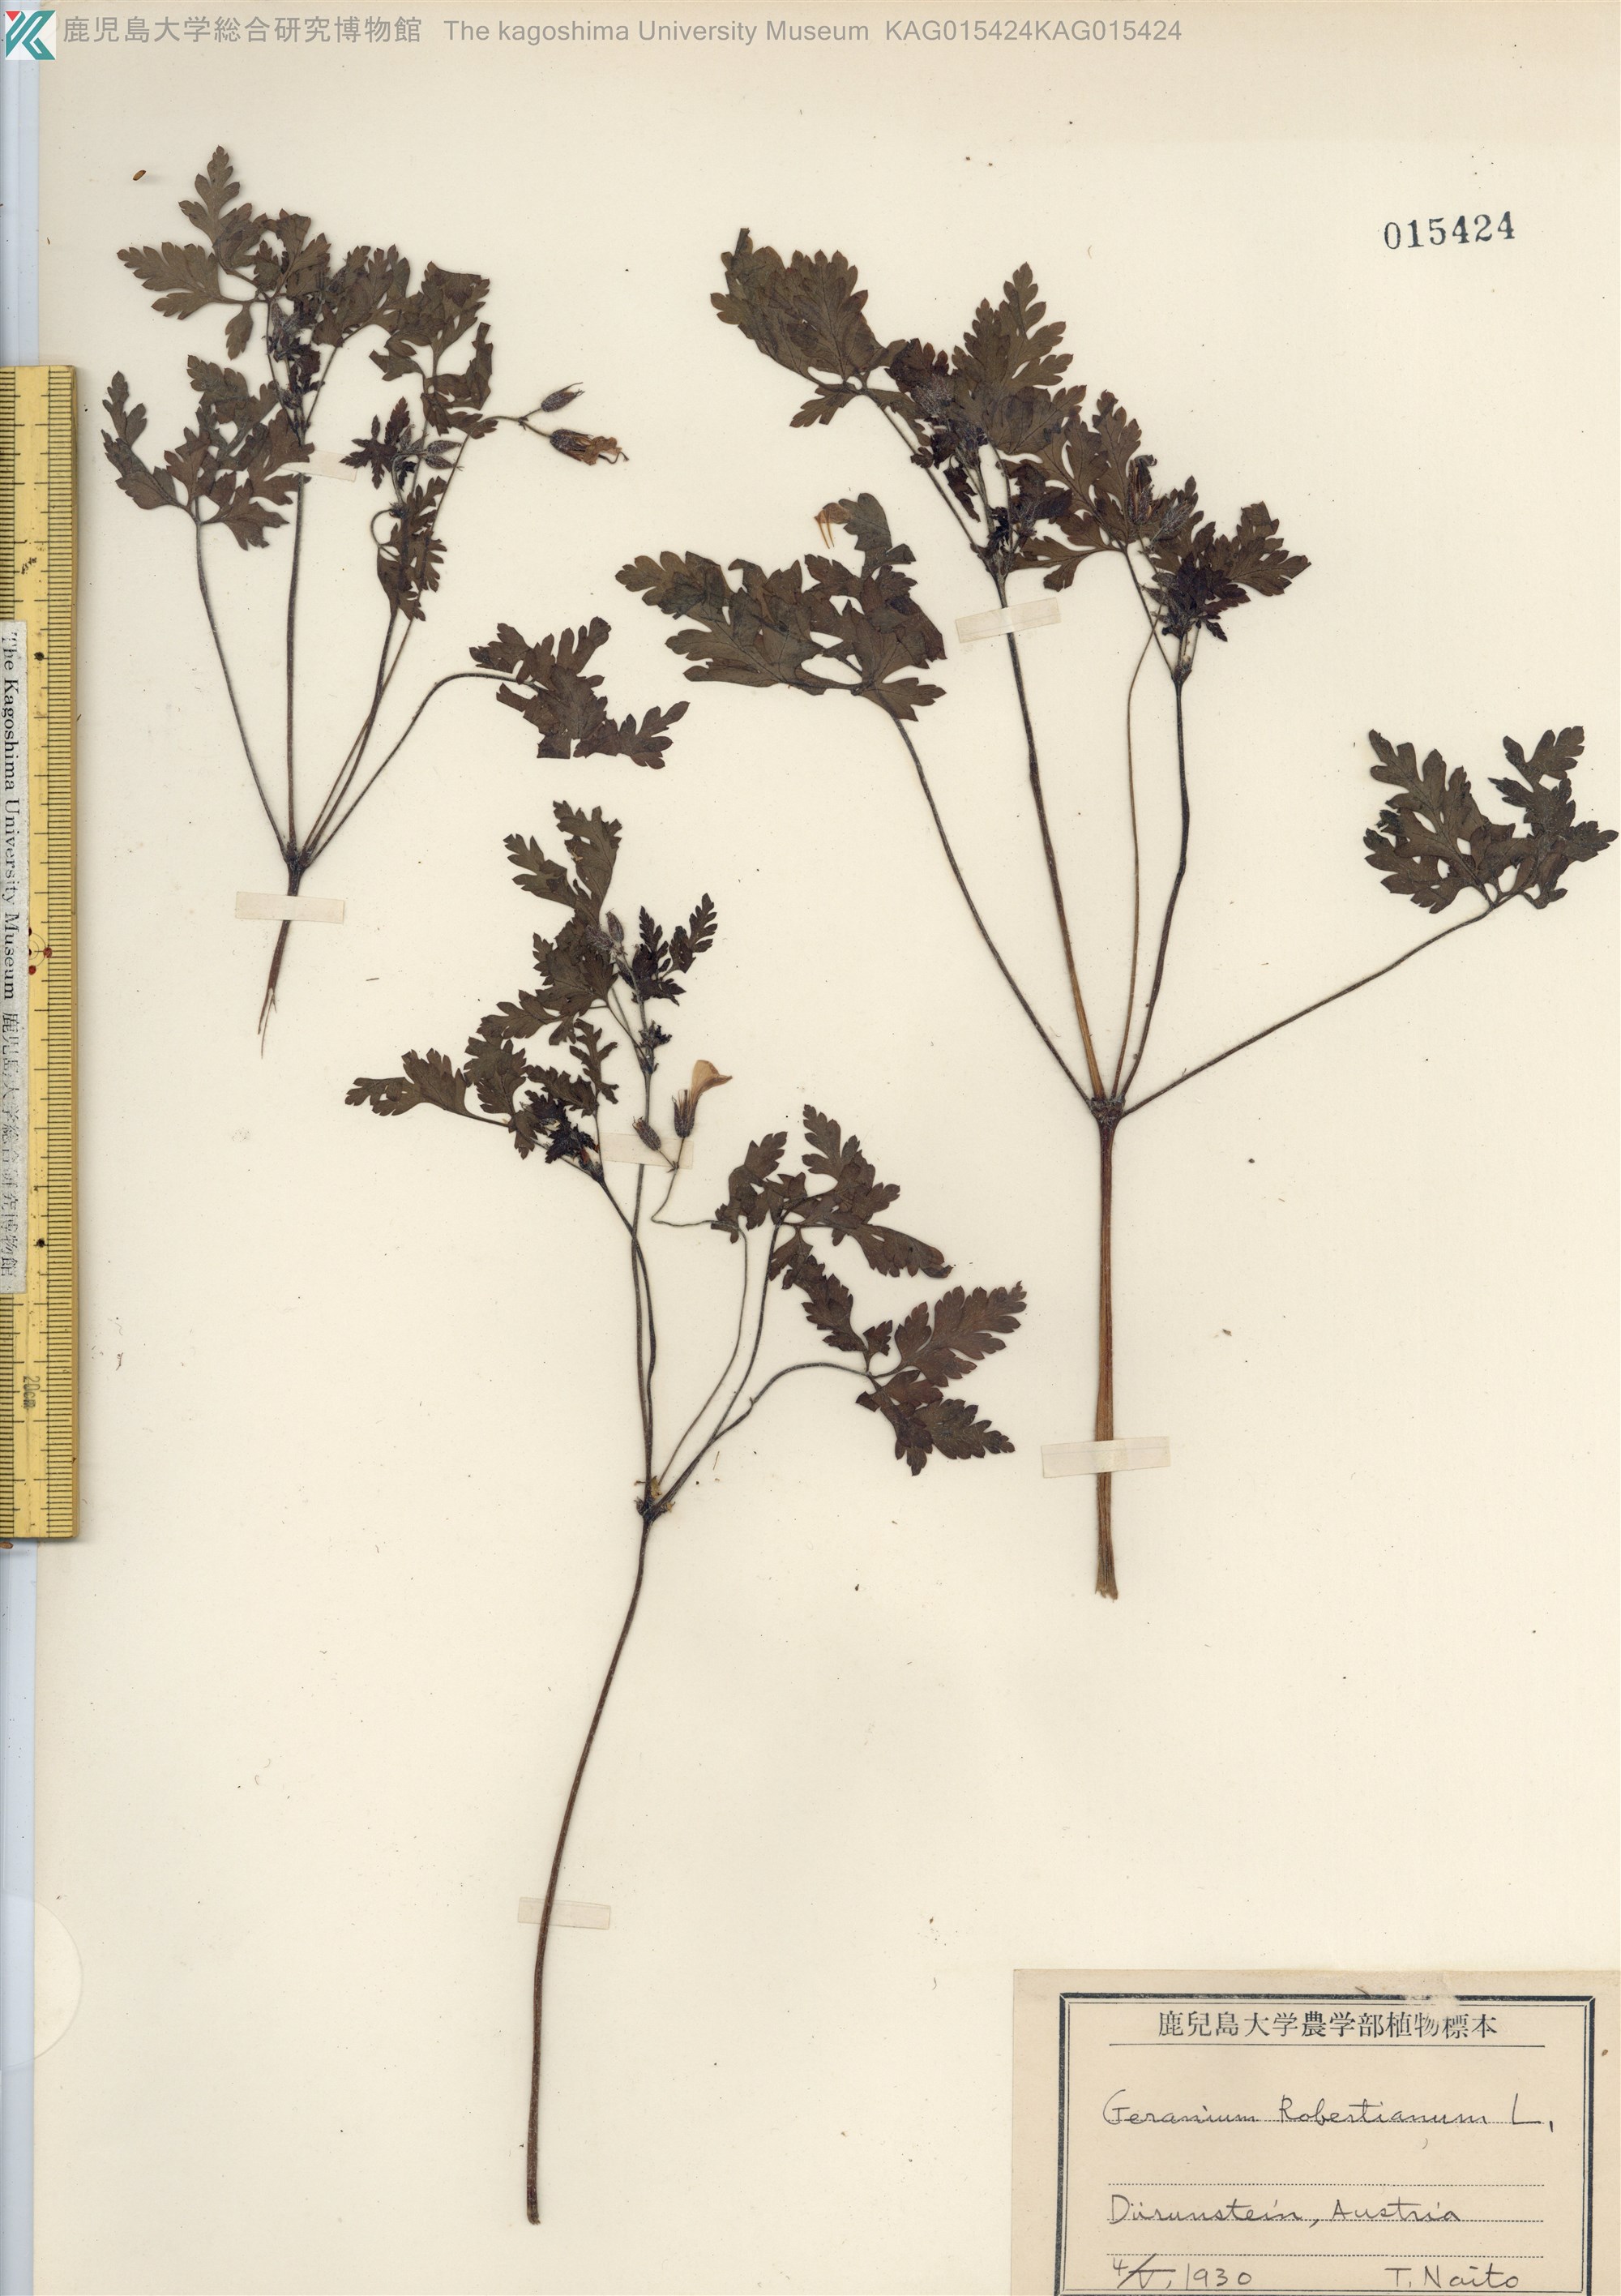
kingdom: Plantae
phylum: Tracheophyta
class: Magnoliopsida
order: Geraniales
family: Geraniaceae
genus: Geranium
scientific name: Geranium robertianum
